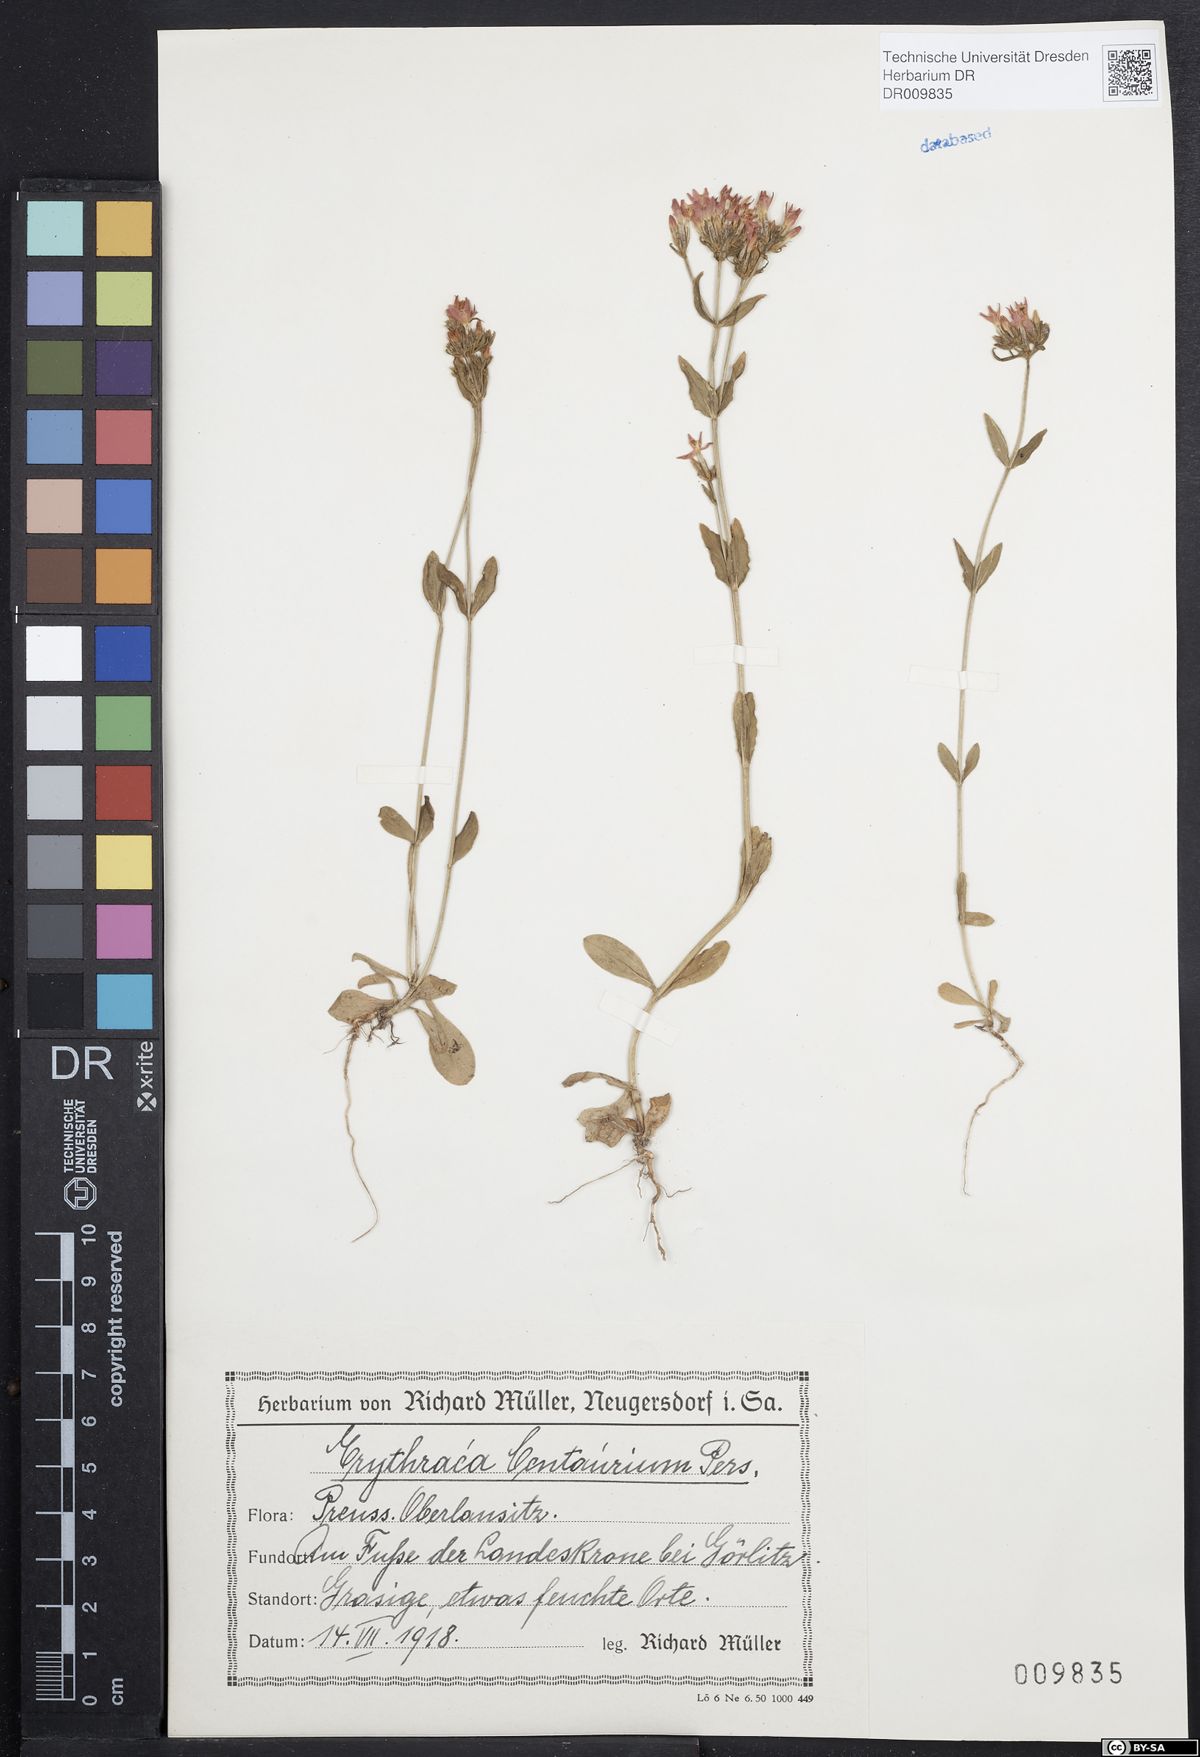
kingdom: Plantae
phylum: Tracheophyta
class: Magnoliopsida
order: Gentianales
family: Gentianaceae
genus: Centaurium
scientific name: Centaurium erythraea
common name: Common centaury
